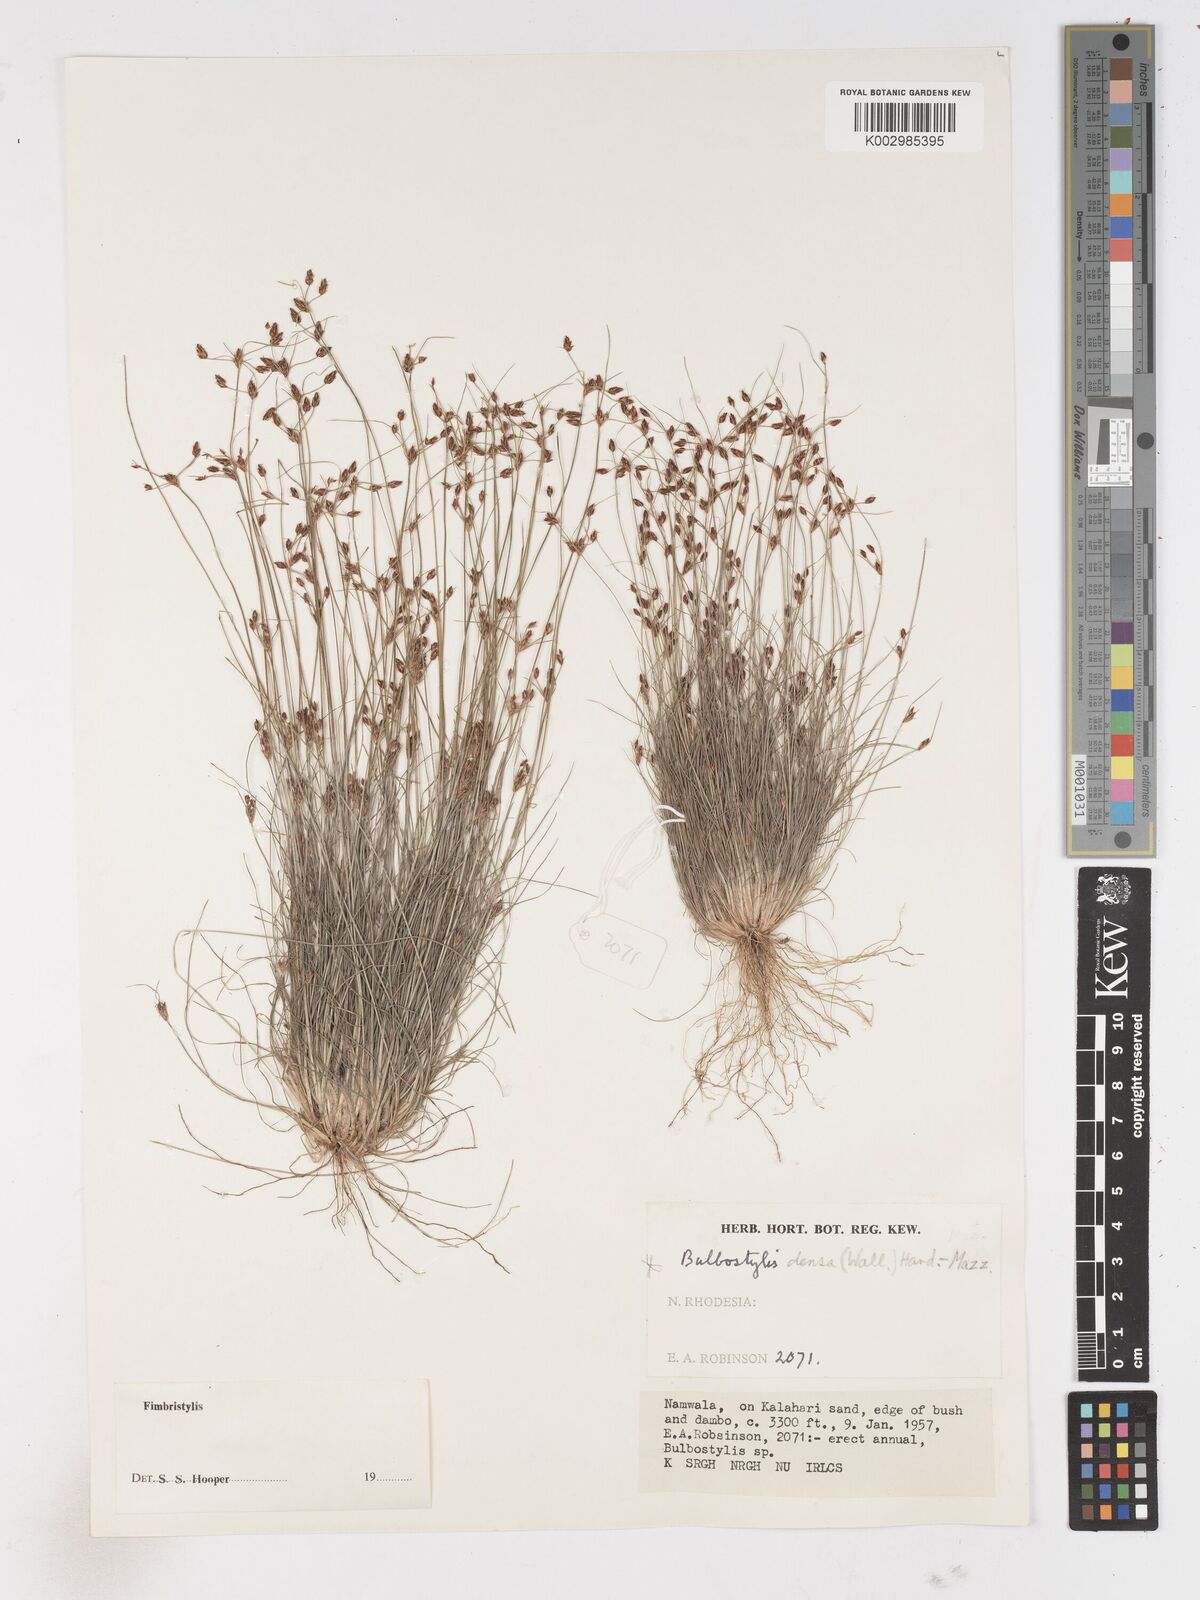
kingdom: Plantae
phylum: Tracheophyta
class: Liliopsida
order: Poales
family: Cyperaceae
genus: Fimbristylis
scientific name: Fimbristylis
